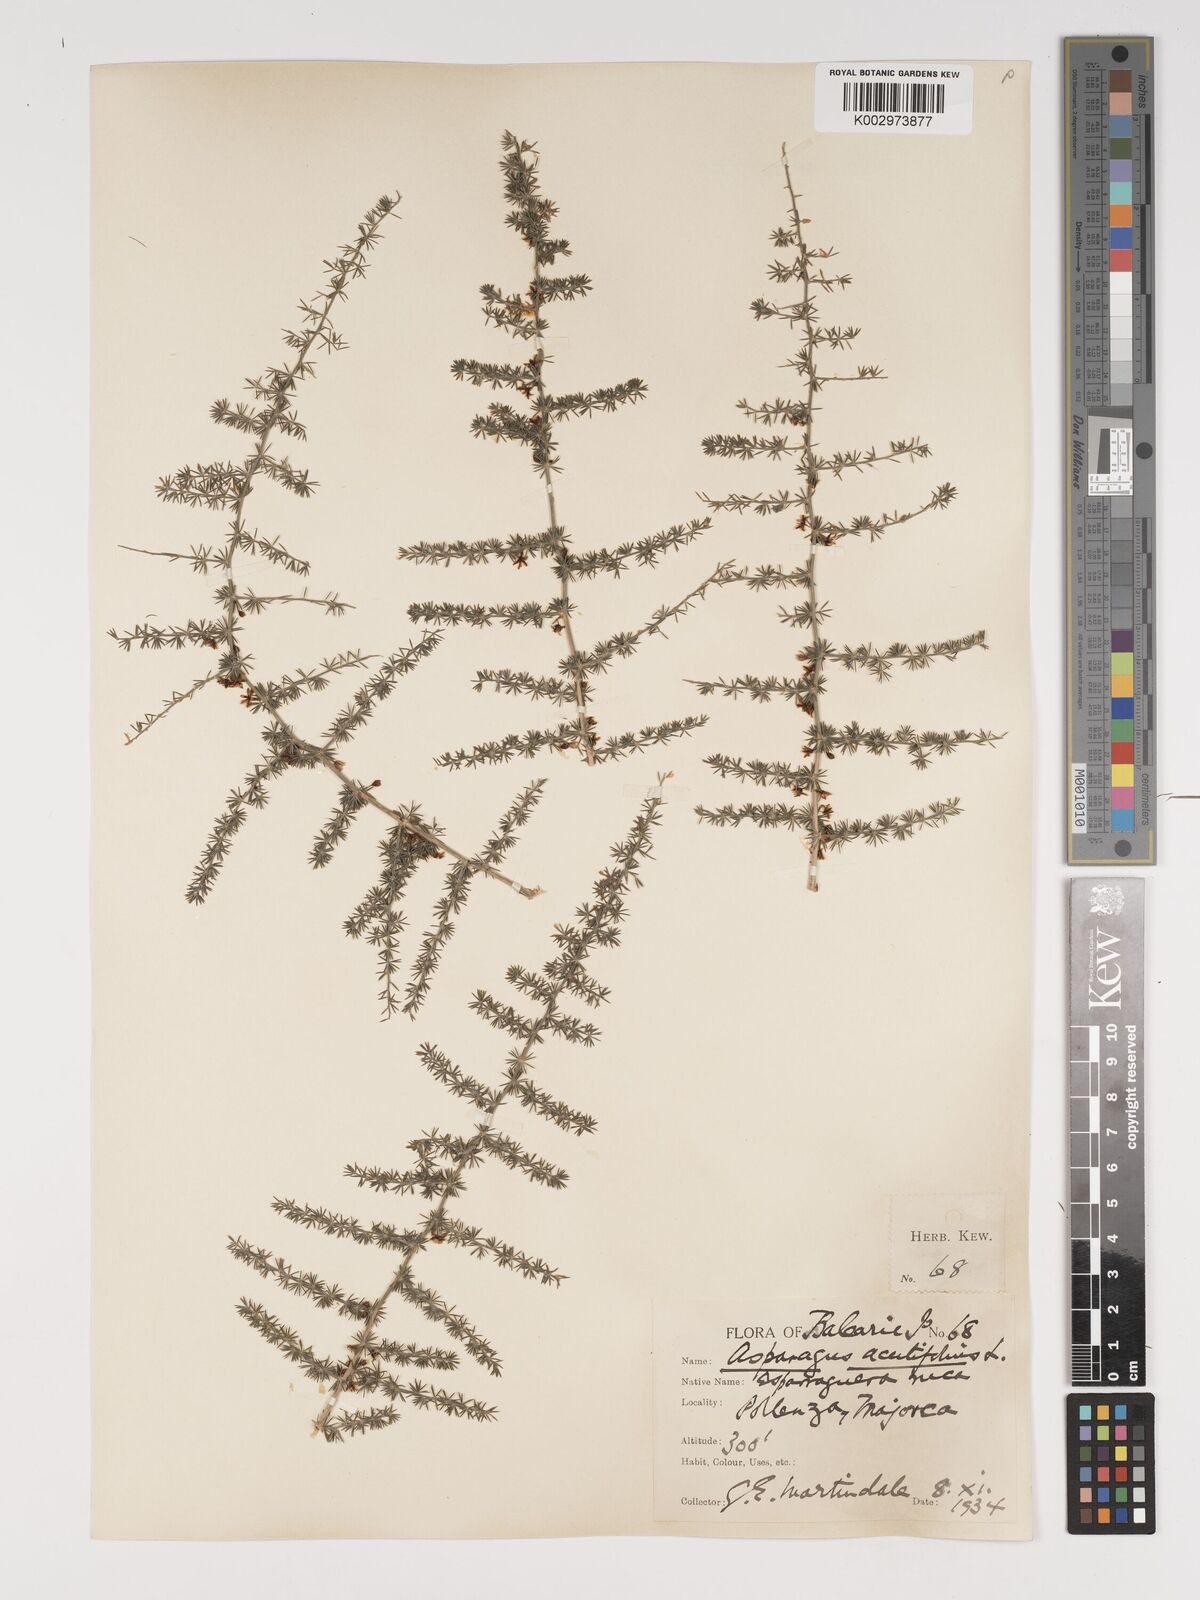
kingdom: Plantae
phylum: Tracheophyta
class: Liliopsida
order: Asparagales
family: Asparagaceae
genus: Asparagus
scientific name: Asparagus acutifolius
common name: Wild asparagus
